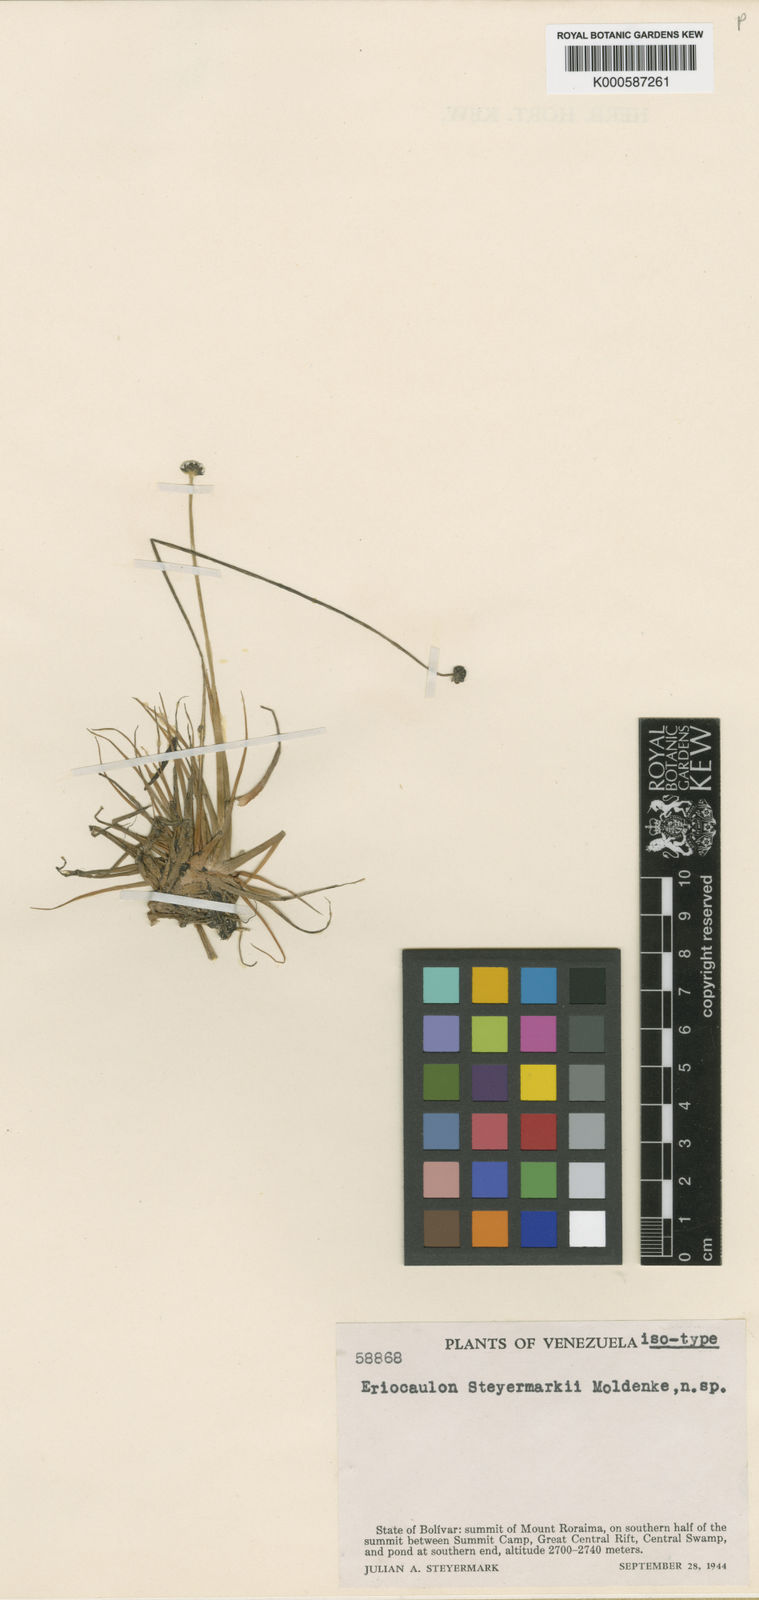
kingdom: Plantae
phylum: Tracheophyta
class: Liliopsida
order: Poales
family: Eriocaulaceae
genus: Eriocaulon
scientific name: Eriocaulon steyermarkii
